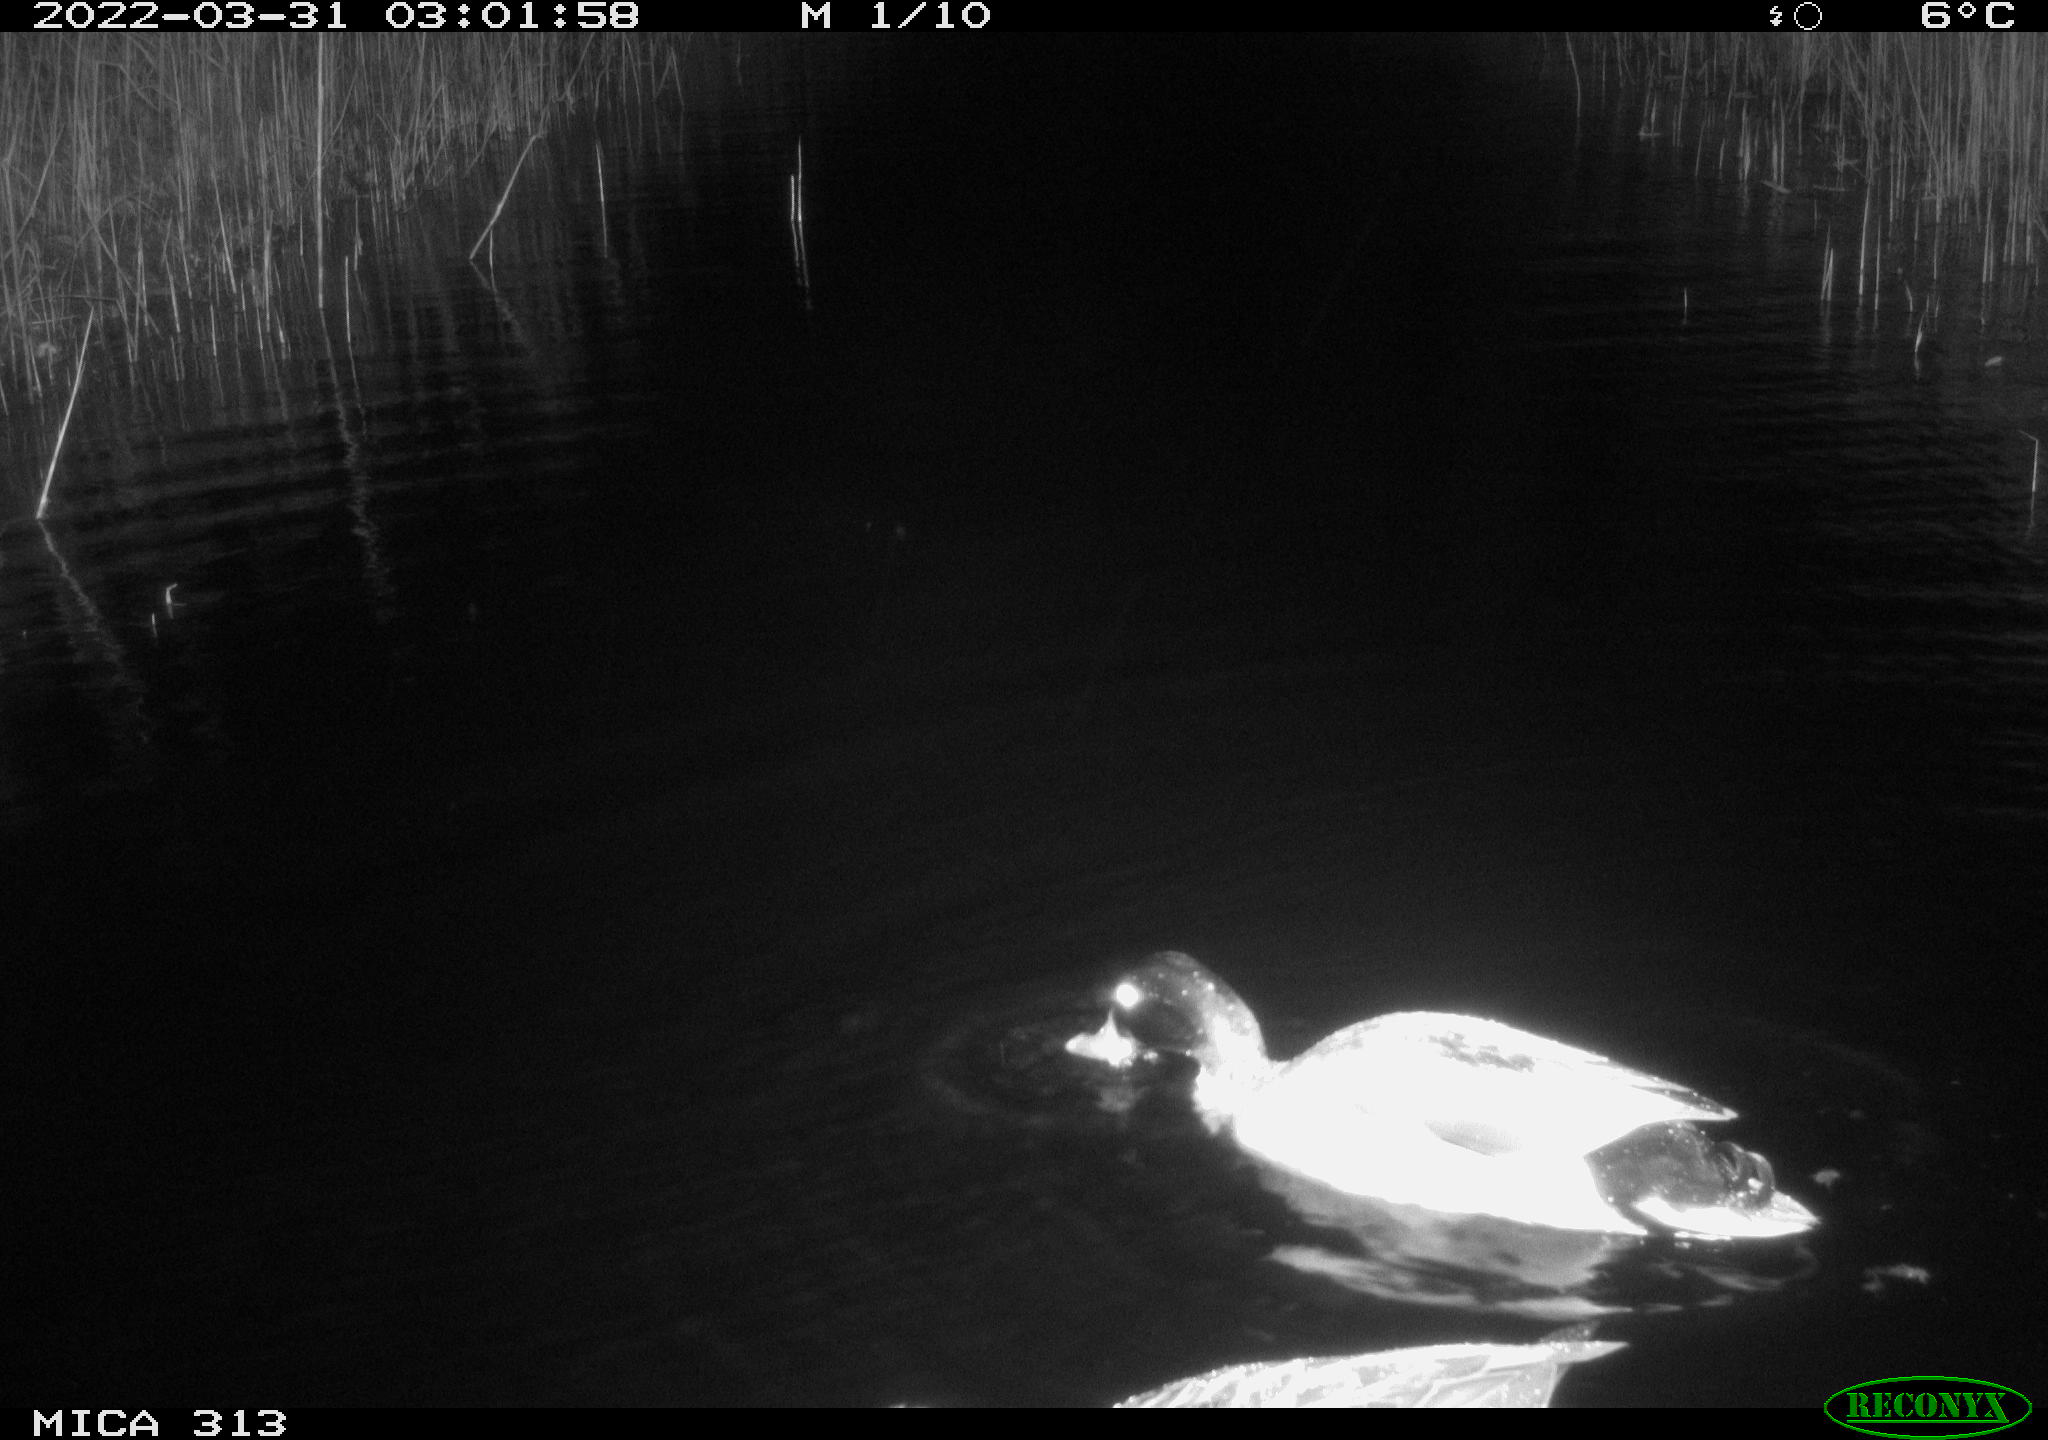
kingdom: Animalia
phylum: Chordata
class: Aves
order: Anseriformes
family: Anatidae
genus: Anas
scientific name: Anas platyrhynchos
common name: Mallard
